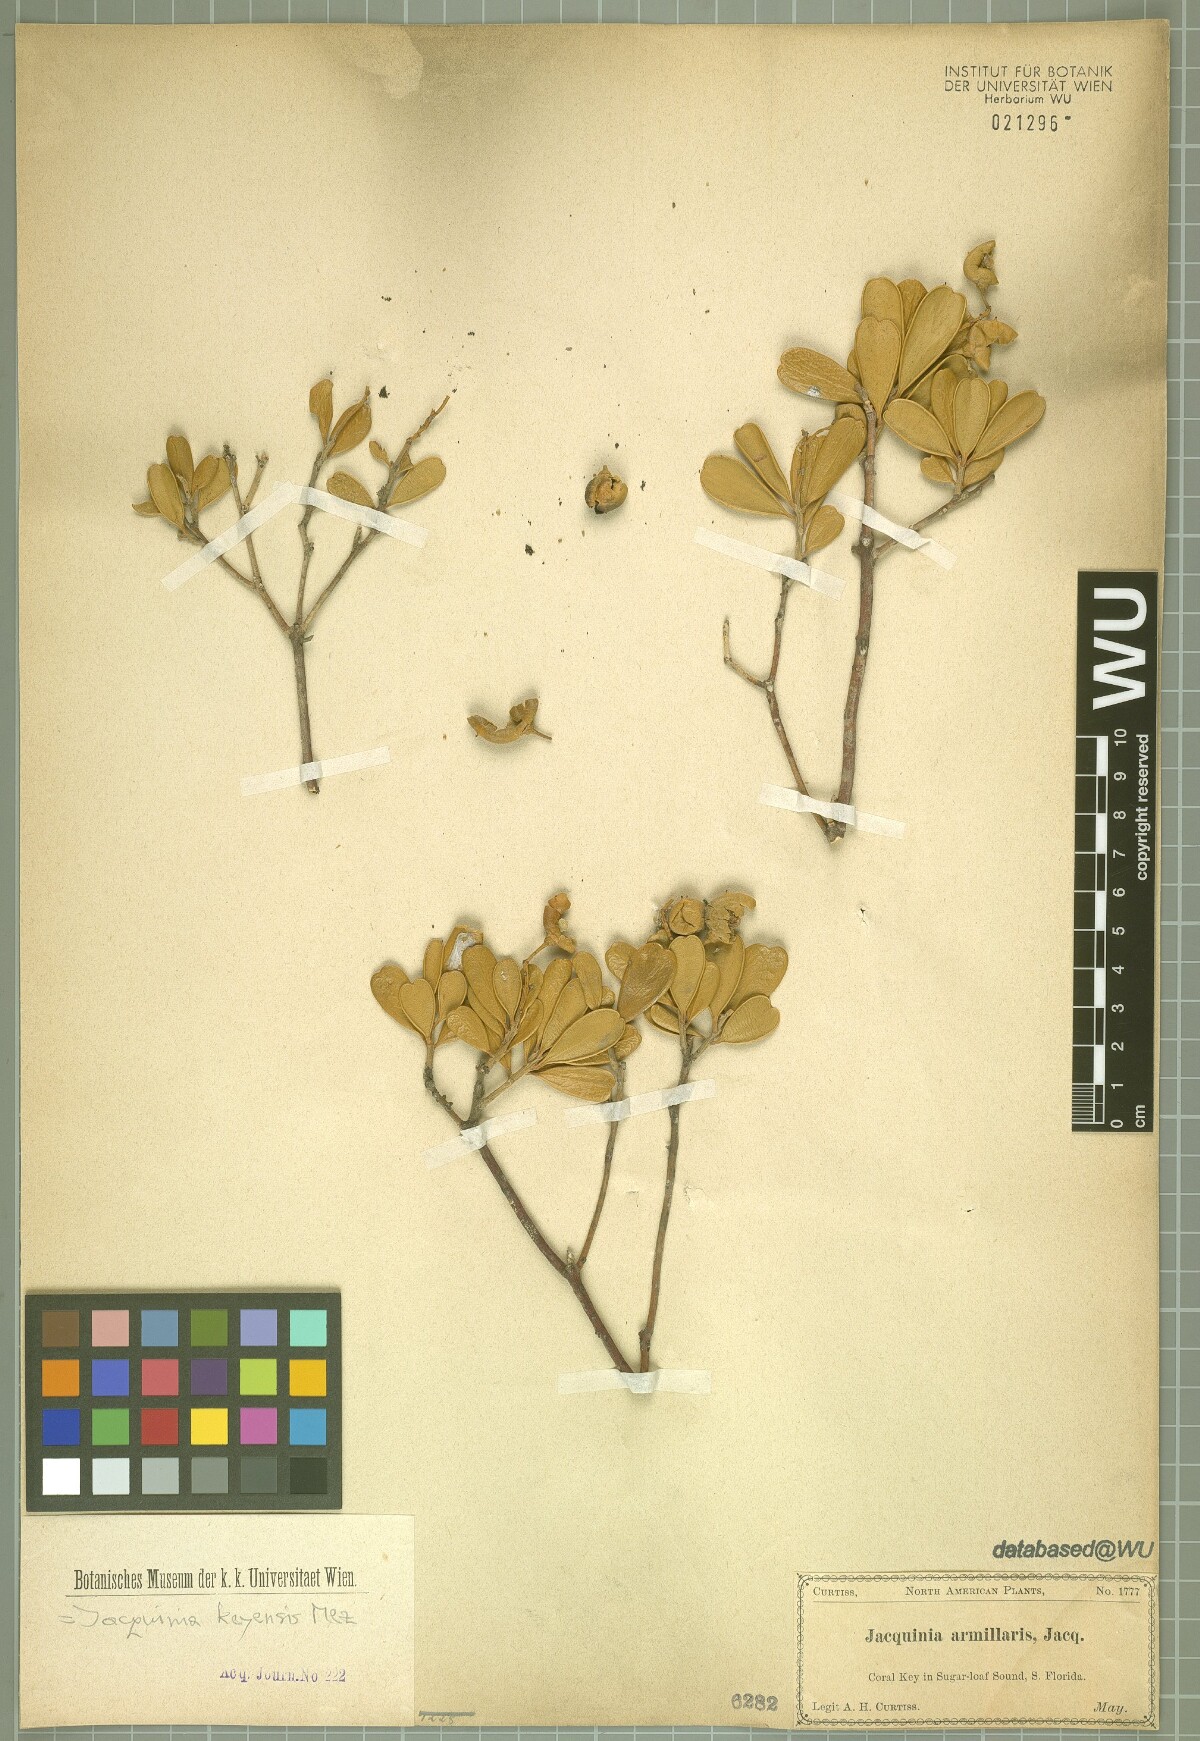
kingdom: Plantae
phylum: Tracheophyta
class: Magnoliopsida
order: Ericales
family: Primulaceae
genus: Jacquinia
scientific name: Jacquinia keyensis
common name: Joebush
